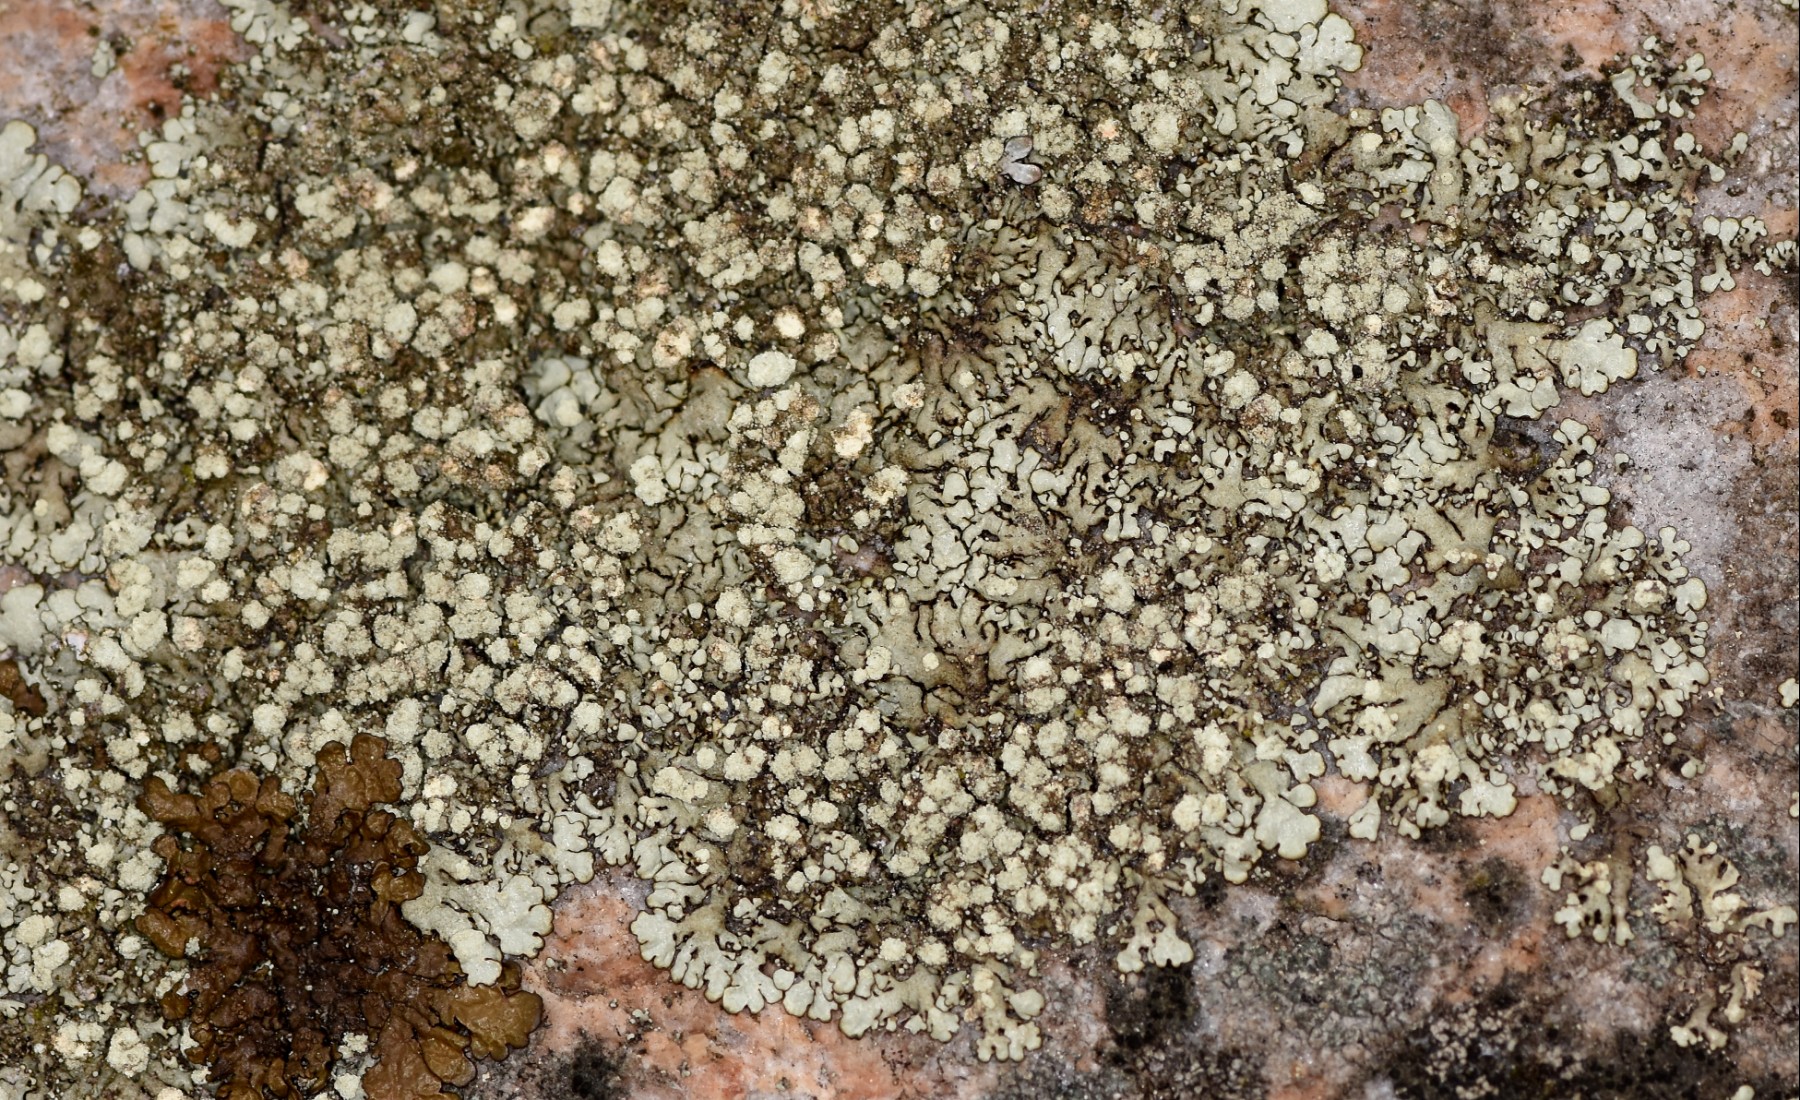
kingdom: Fungi
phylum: Ascomycota
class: Lecanoromycetes
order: Lecanorales
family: Parmeliaceae
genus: Xanthoparmelia
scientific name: Xanthoparmelia mougeotii
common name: liden skållav
